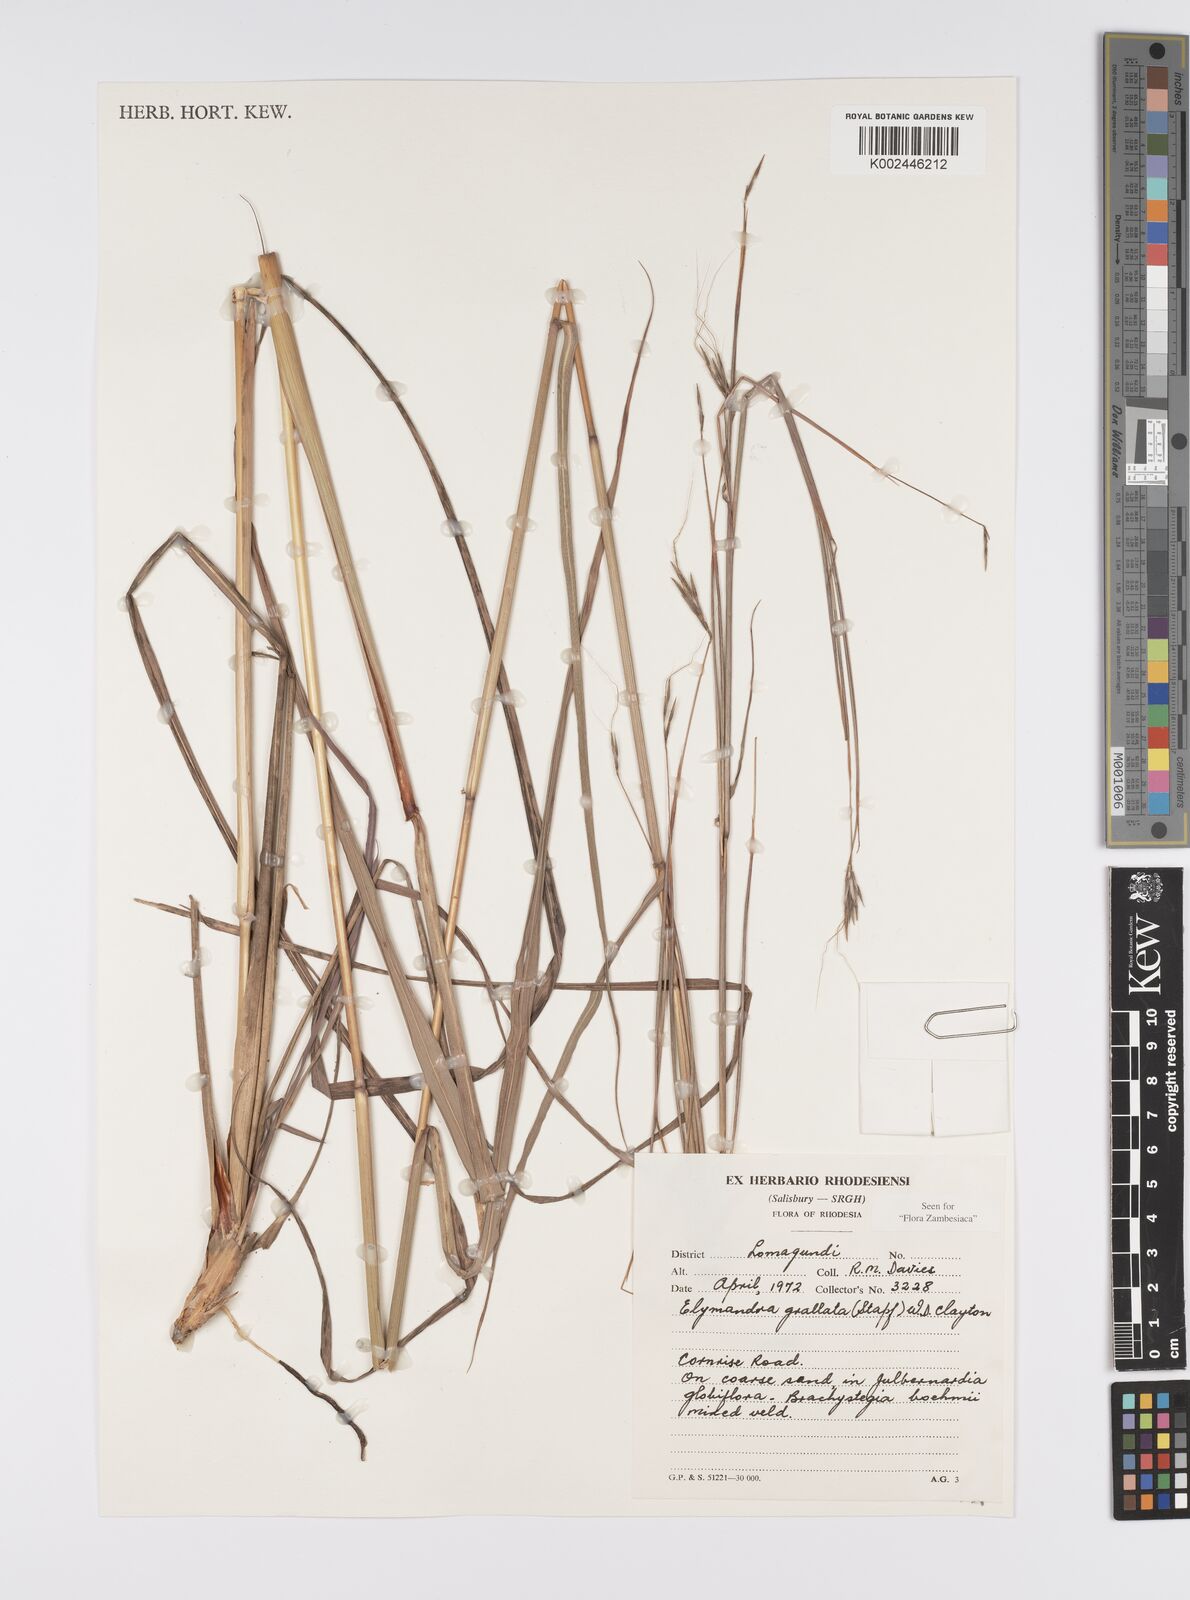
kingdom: Plantae
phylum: Tracheophyta
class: Liliopsida
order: Poales
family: Poaceae
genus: Elymandra
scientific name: Elymandra grallata
